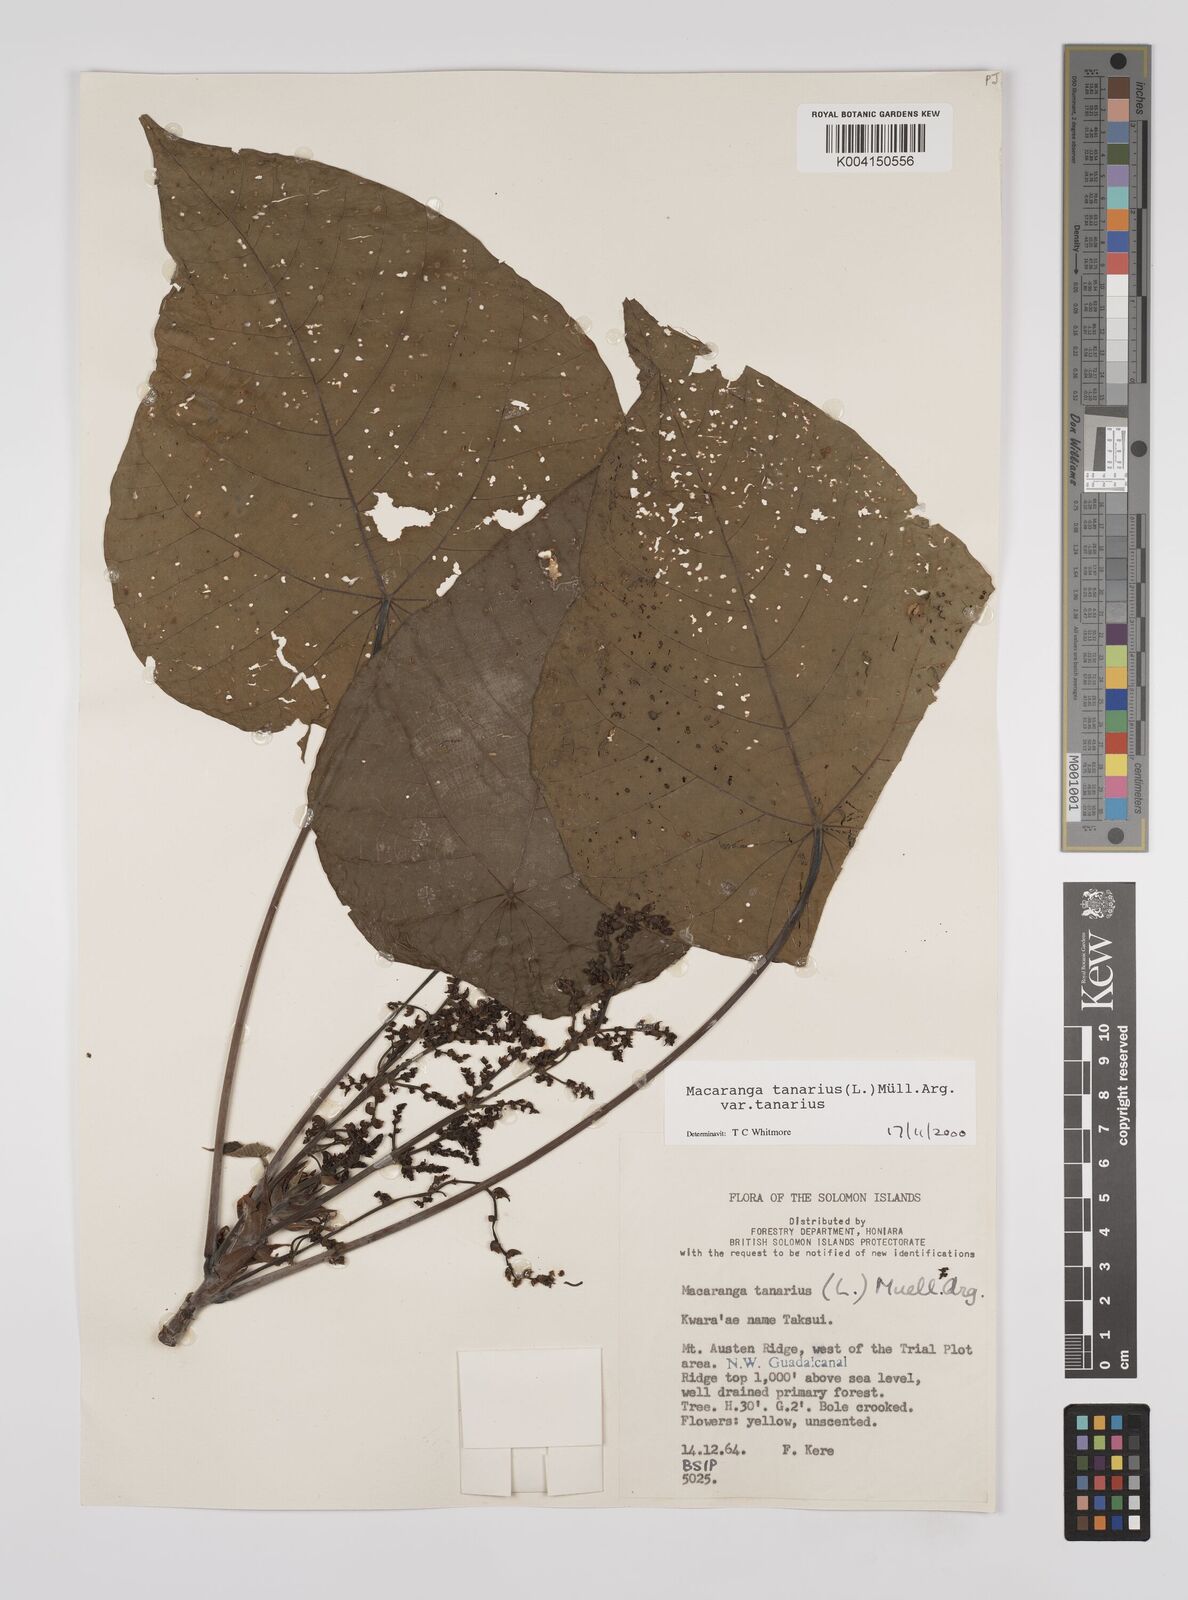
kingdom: Plantae
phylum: Tracheophyta
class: Magnoliopsida
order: Malpighiales
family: Euphorbiaceae
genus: Macaranga
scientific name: Macaranga tanarius
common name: Parasol leaf tree
